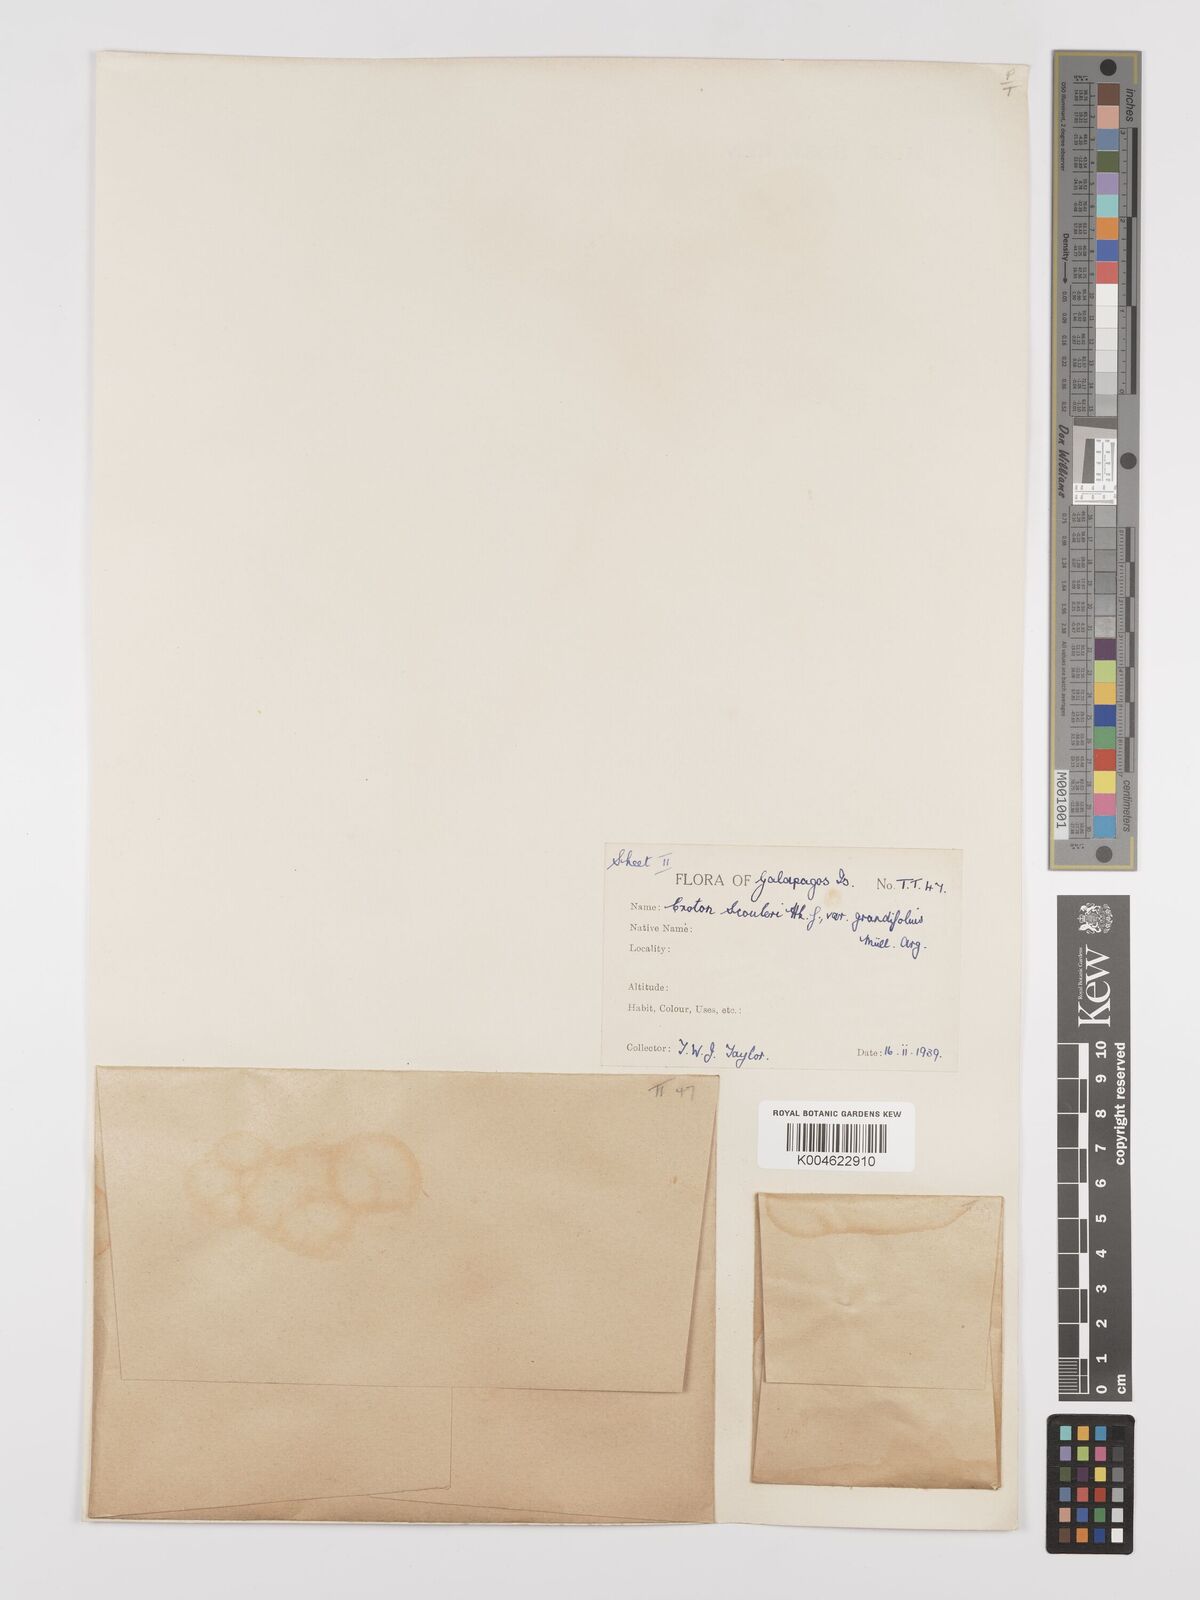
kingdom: Plantae
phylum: Tracheophyta
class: Magnoliopsida
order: Malpighiales
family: Euphorbiaceae
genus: Croton
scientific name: Croton scouleri
